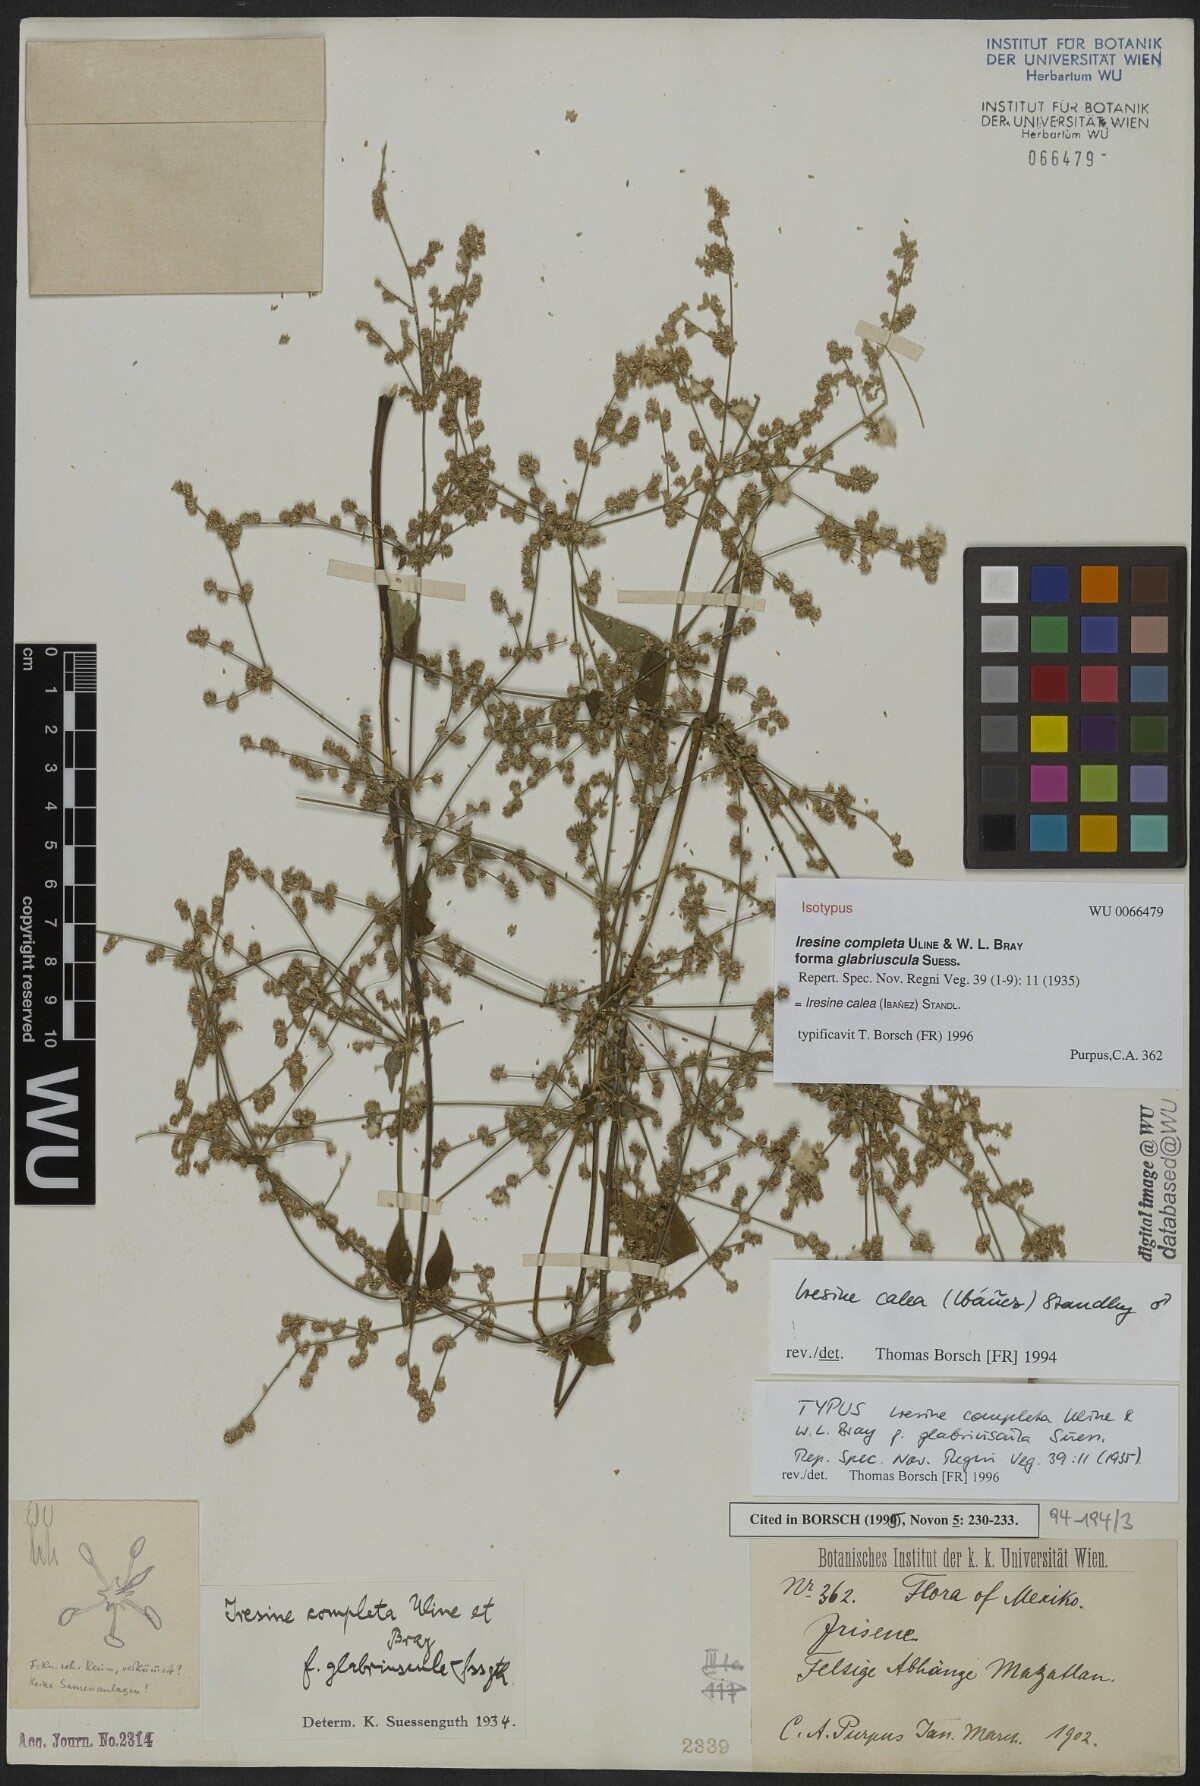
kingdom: Plantae
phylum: Tracheophyta
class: Magnoliopsida
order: Caryophyllales
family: Amaranthaceae
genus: Pedersenia
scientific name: Pedersenia completa
